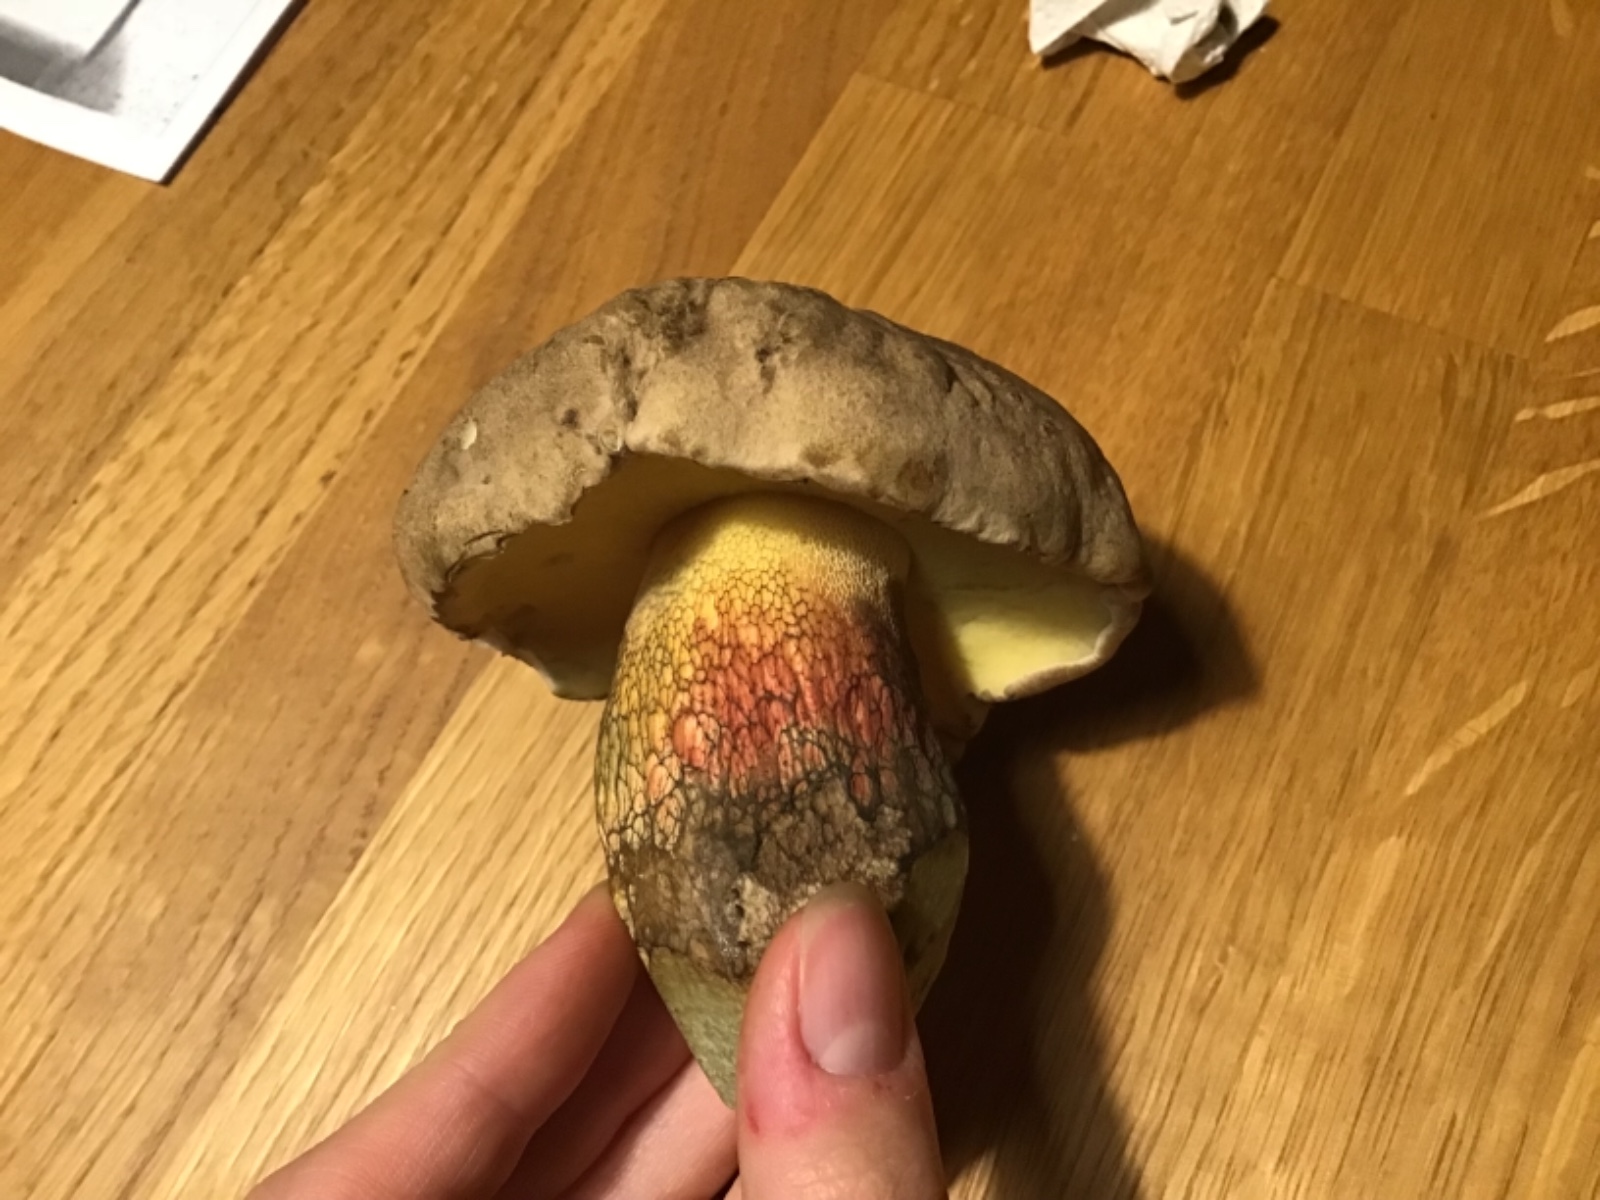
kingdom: Fungi
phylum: Basidiomycota
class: Agaricomycetes
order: Boletales
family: Boletaceae
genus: Caloboletus
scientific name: Caloboletus calopus
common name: skønfodet rørhat
